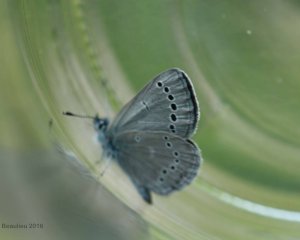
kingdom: Animalia
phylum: Arthropoda
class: Insecta
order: Lepidoptera
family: Lycaenidae
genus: Glaucopsyche
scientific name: Glaucopsyche lygdamus
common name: Silvery Blue
